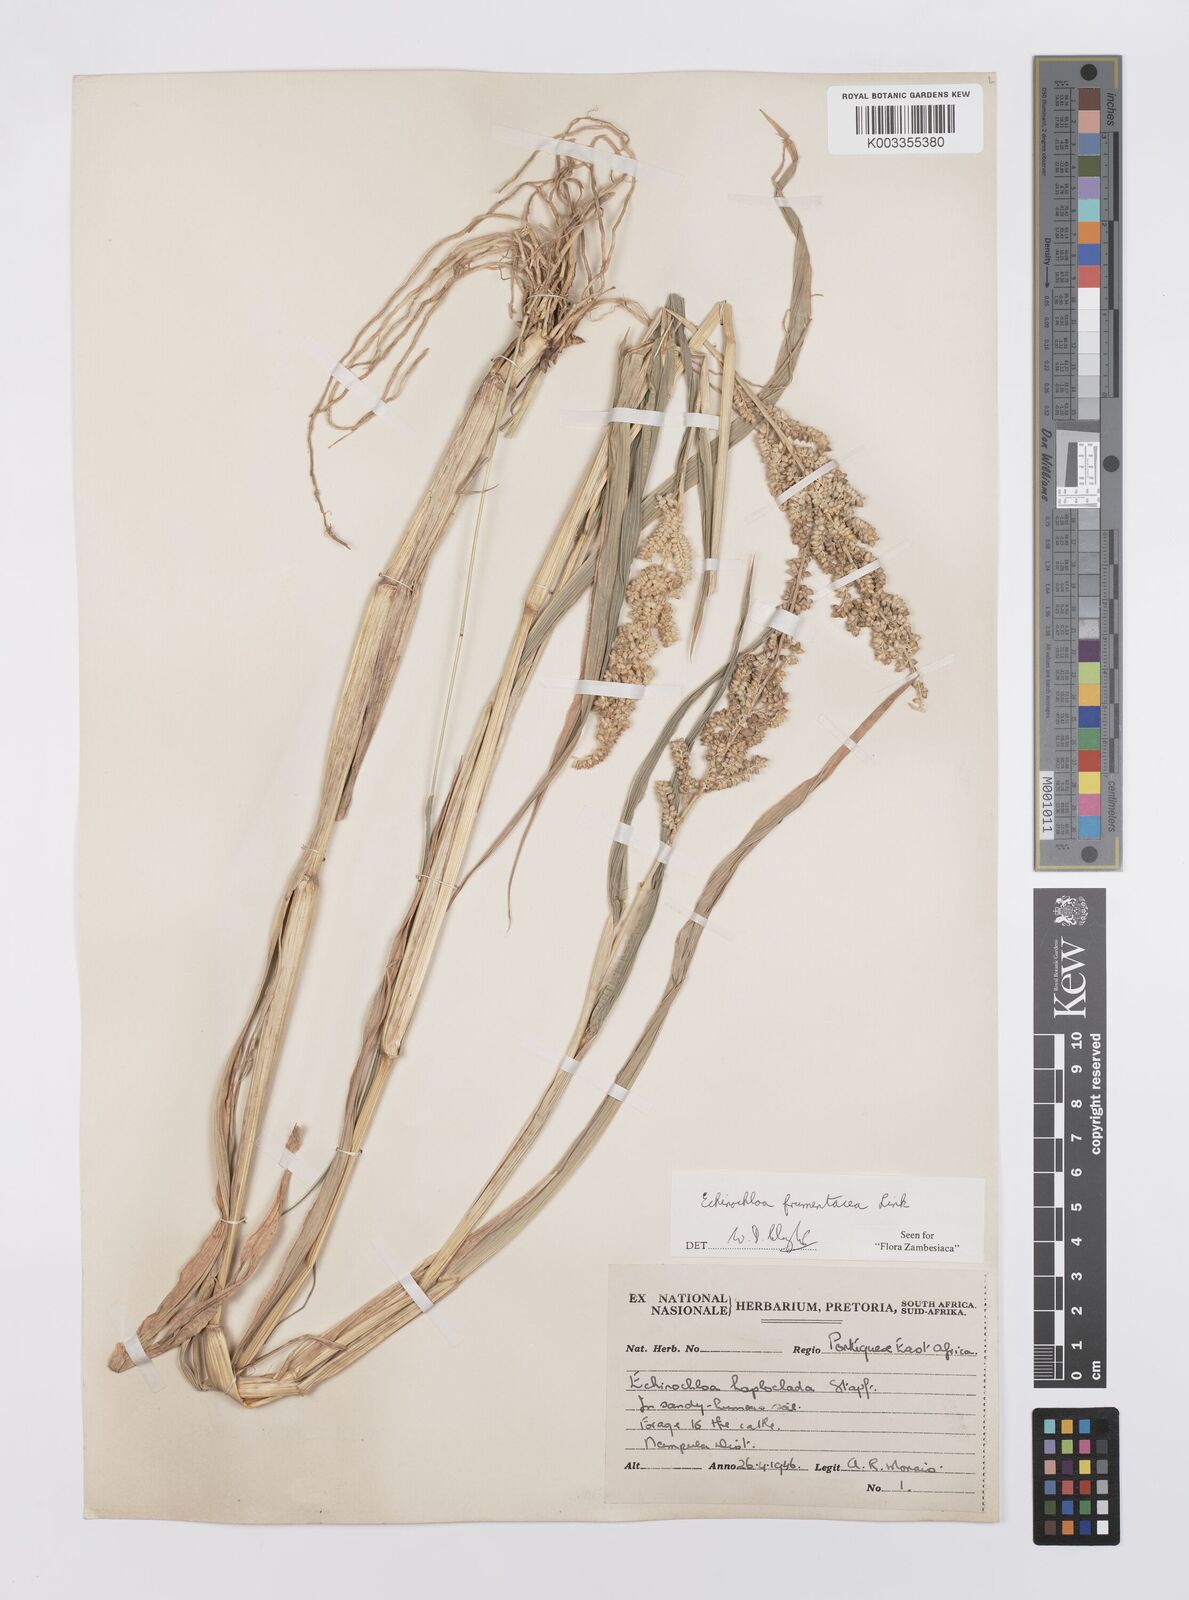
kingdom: Plantae
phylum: Tracheophyta
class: Liliopsida
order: Poales
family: Poaceae
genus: Echinochloa
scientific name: Echinochloa frumentacea
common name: Billion-dollar grass
